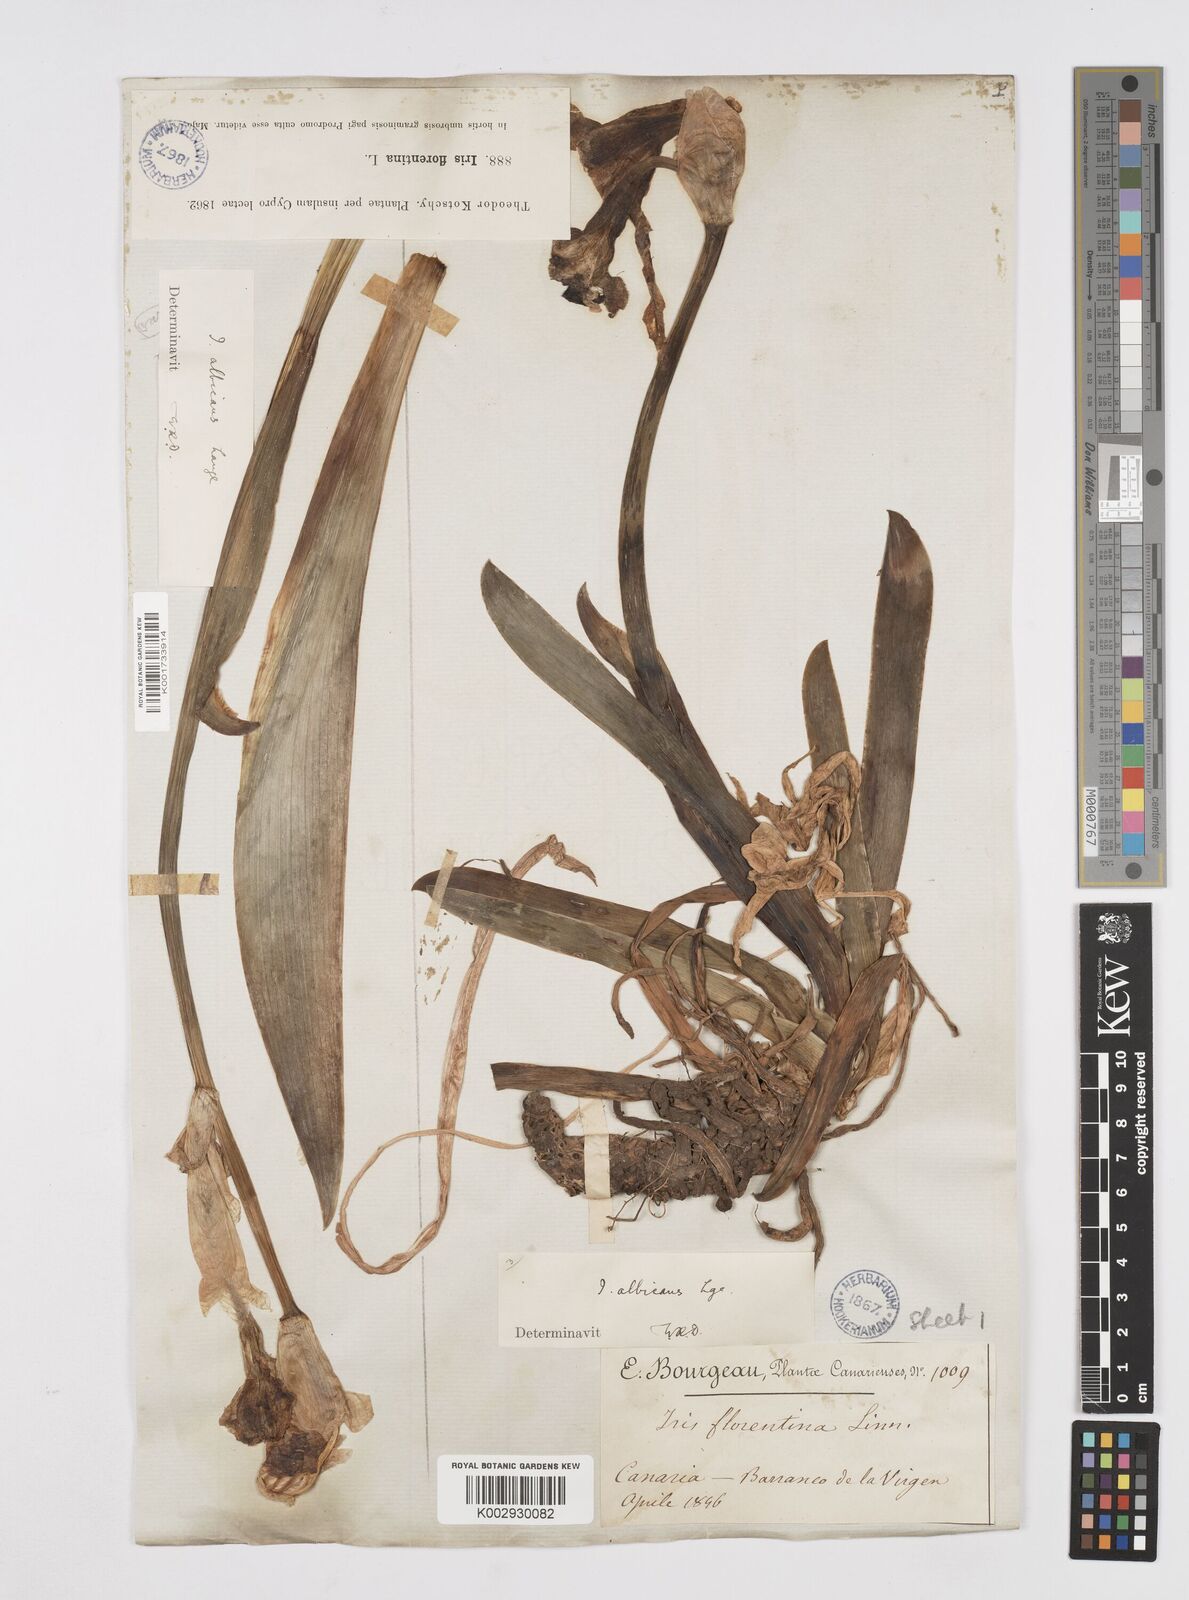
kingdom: Plantae
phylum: Tracheophyta
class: Liliopsida
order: Asparagales
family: Iridaceae
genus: Iris
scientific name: Iris florentina
